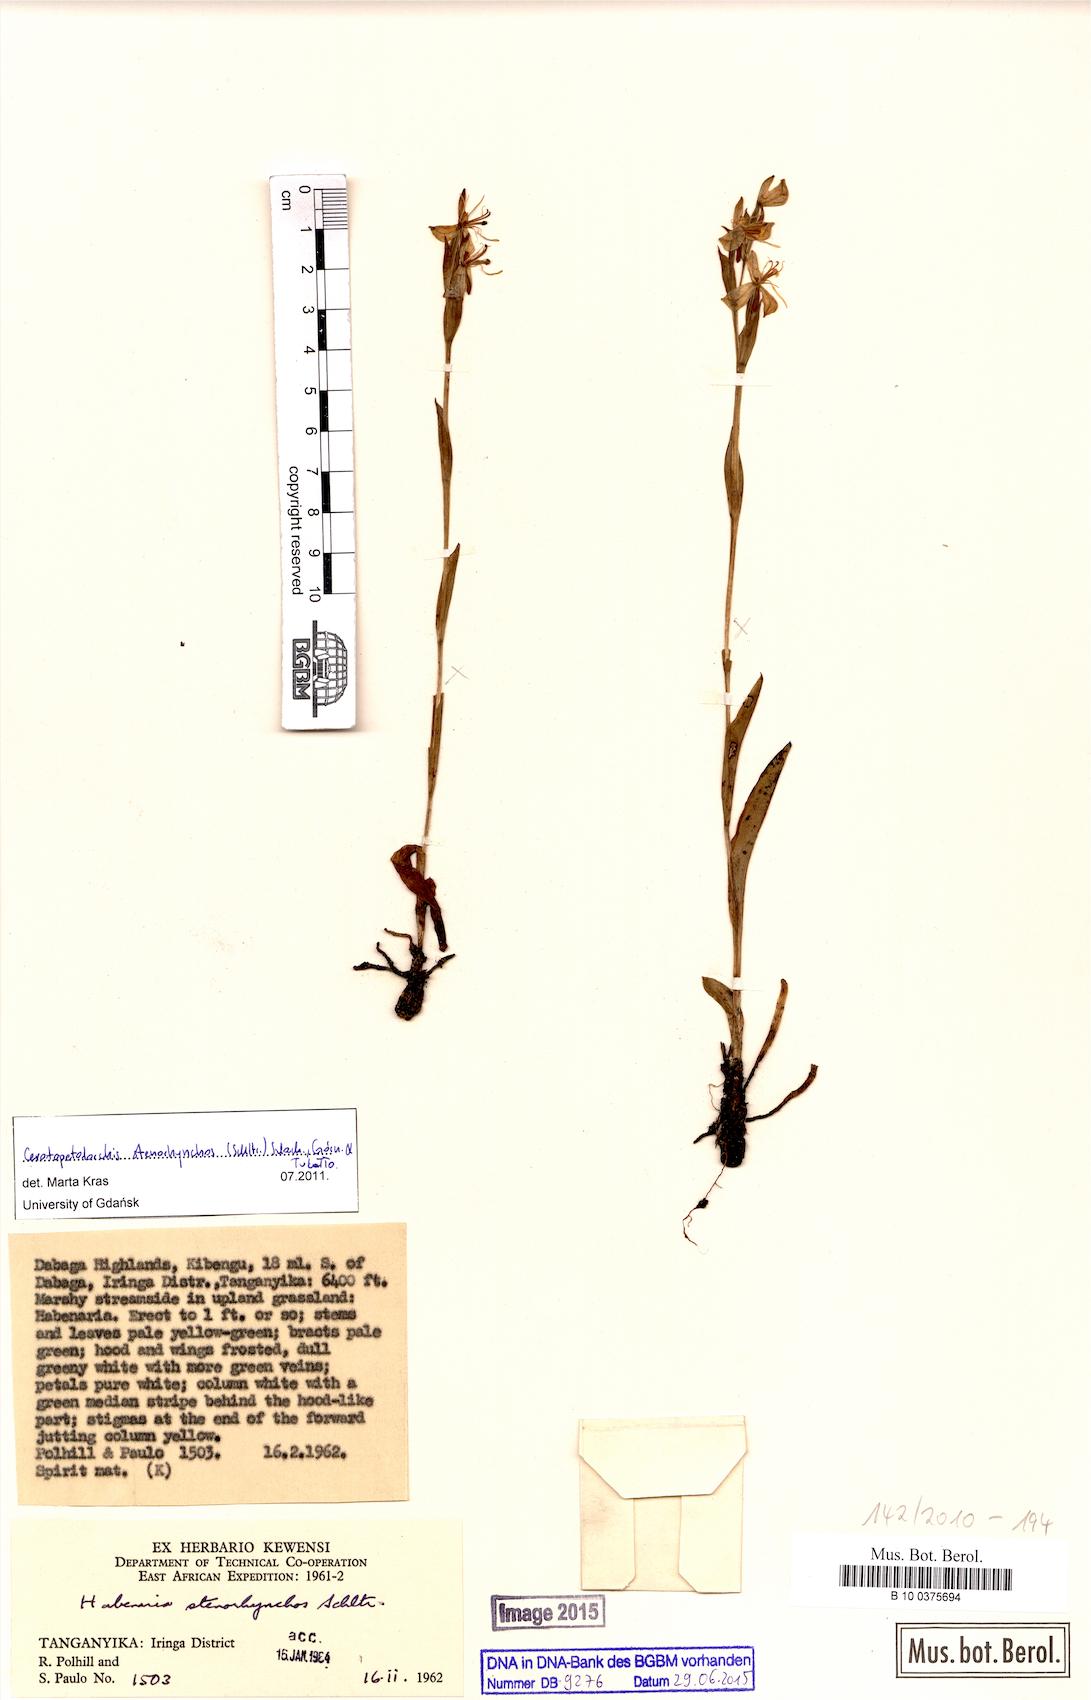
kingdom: Plantae
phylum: Tracheophyta
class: Liliopsida
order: Asparagales
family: Orchidaceae
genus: Habenaria
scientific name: Habenaria stenorhynchos
